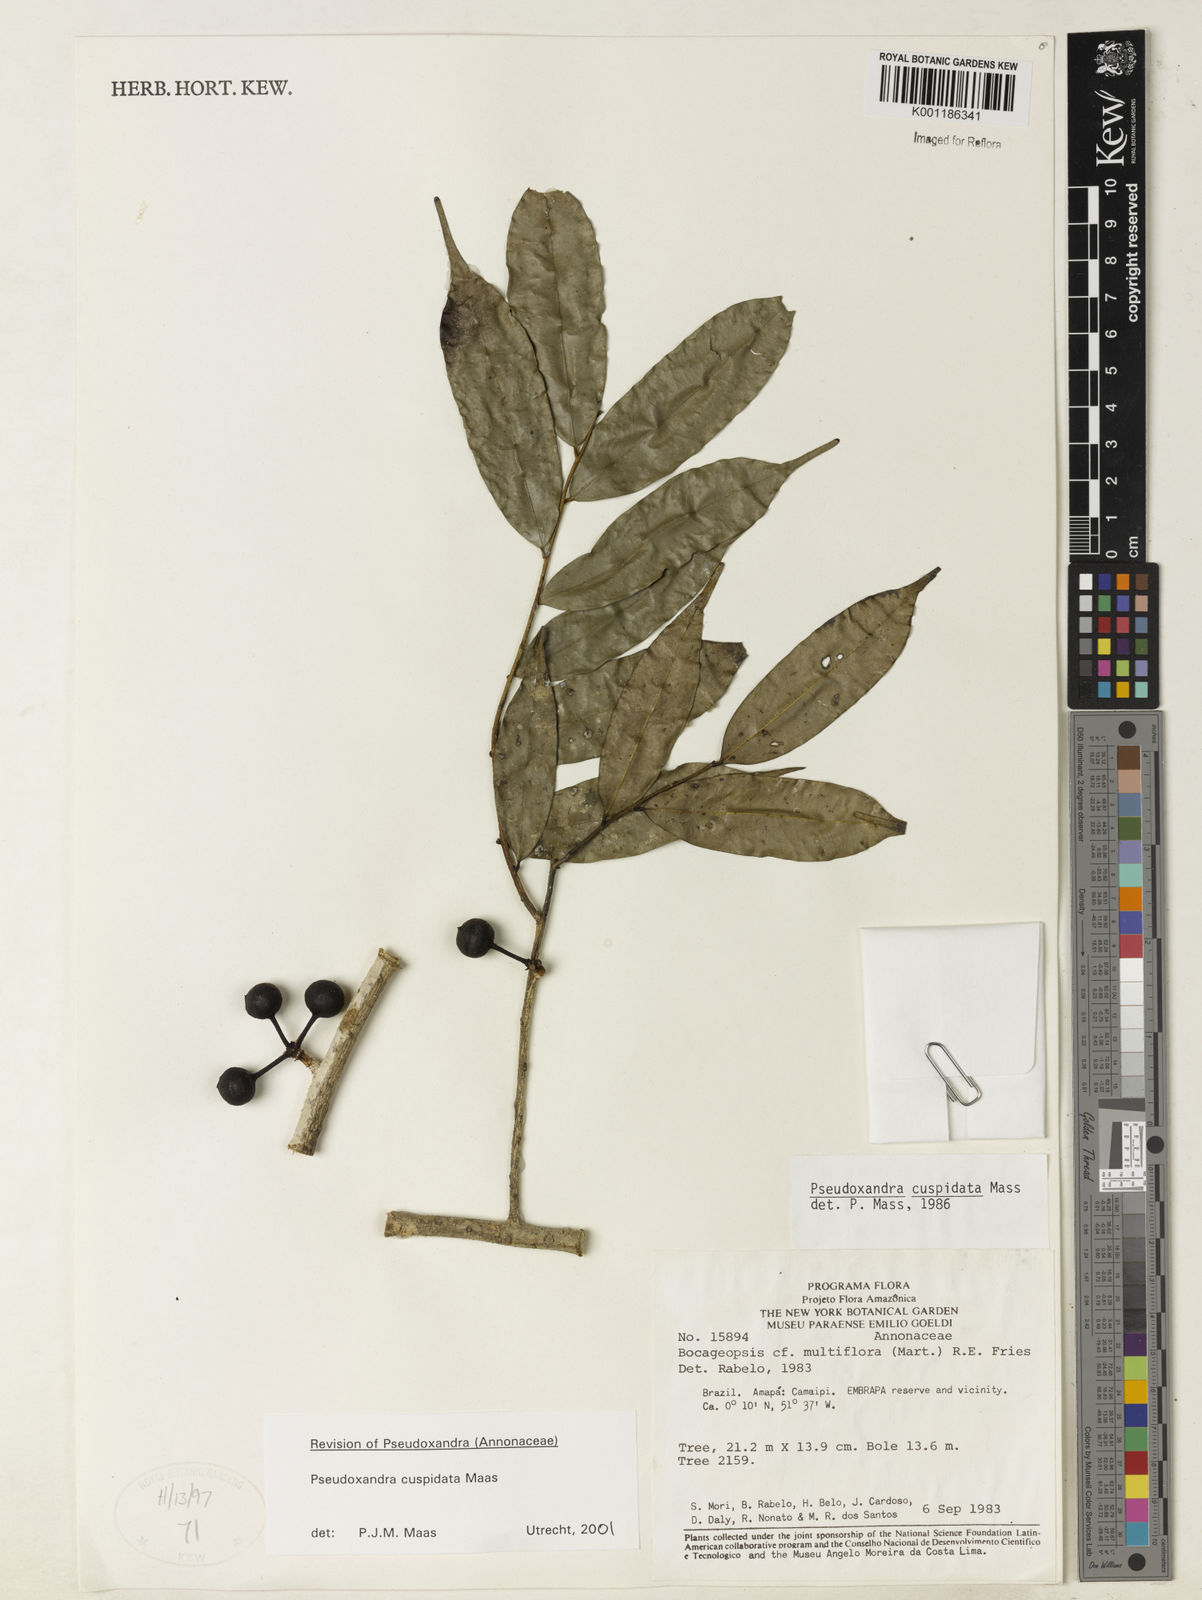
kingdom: Plantae
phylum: Tracheophyta
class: Magnoliopsida
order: Magnoliales
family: Annonaceae
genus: Pseudoxandra
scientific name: Pseudoxandra cuspidata
